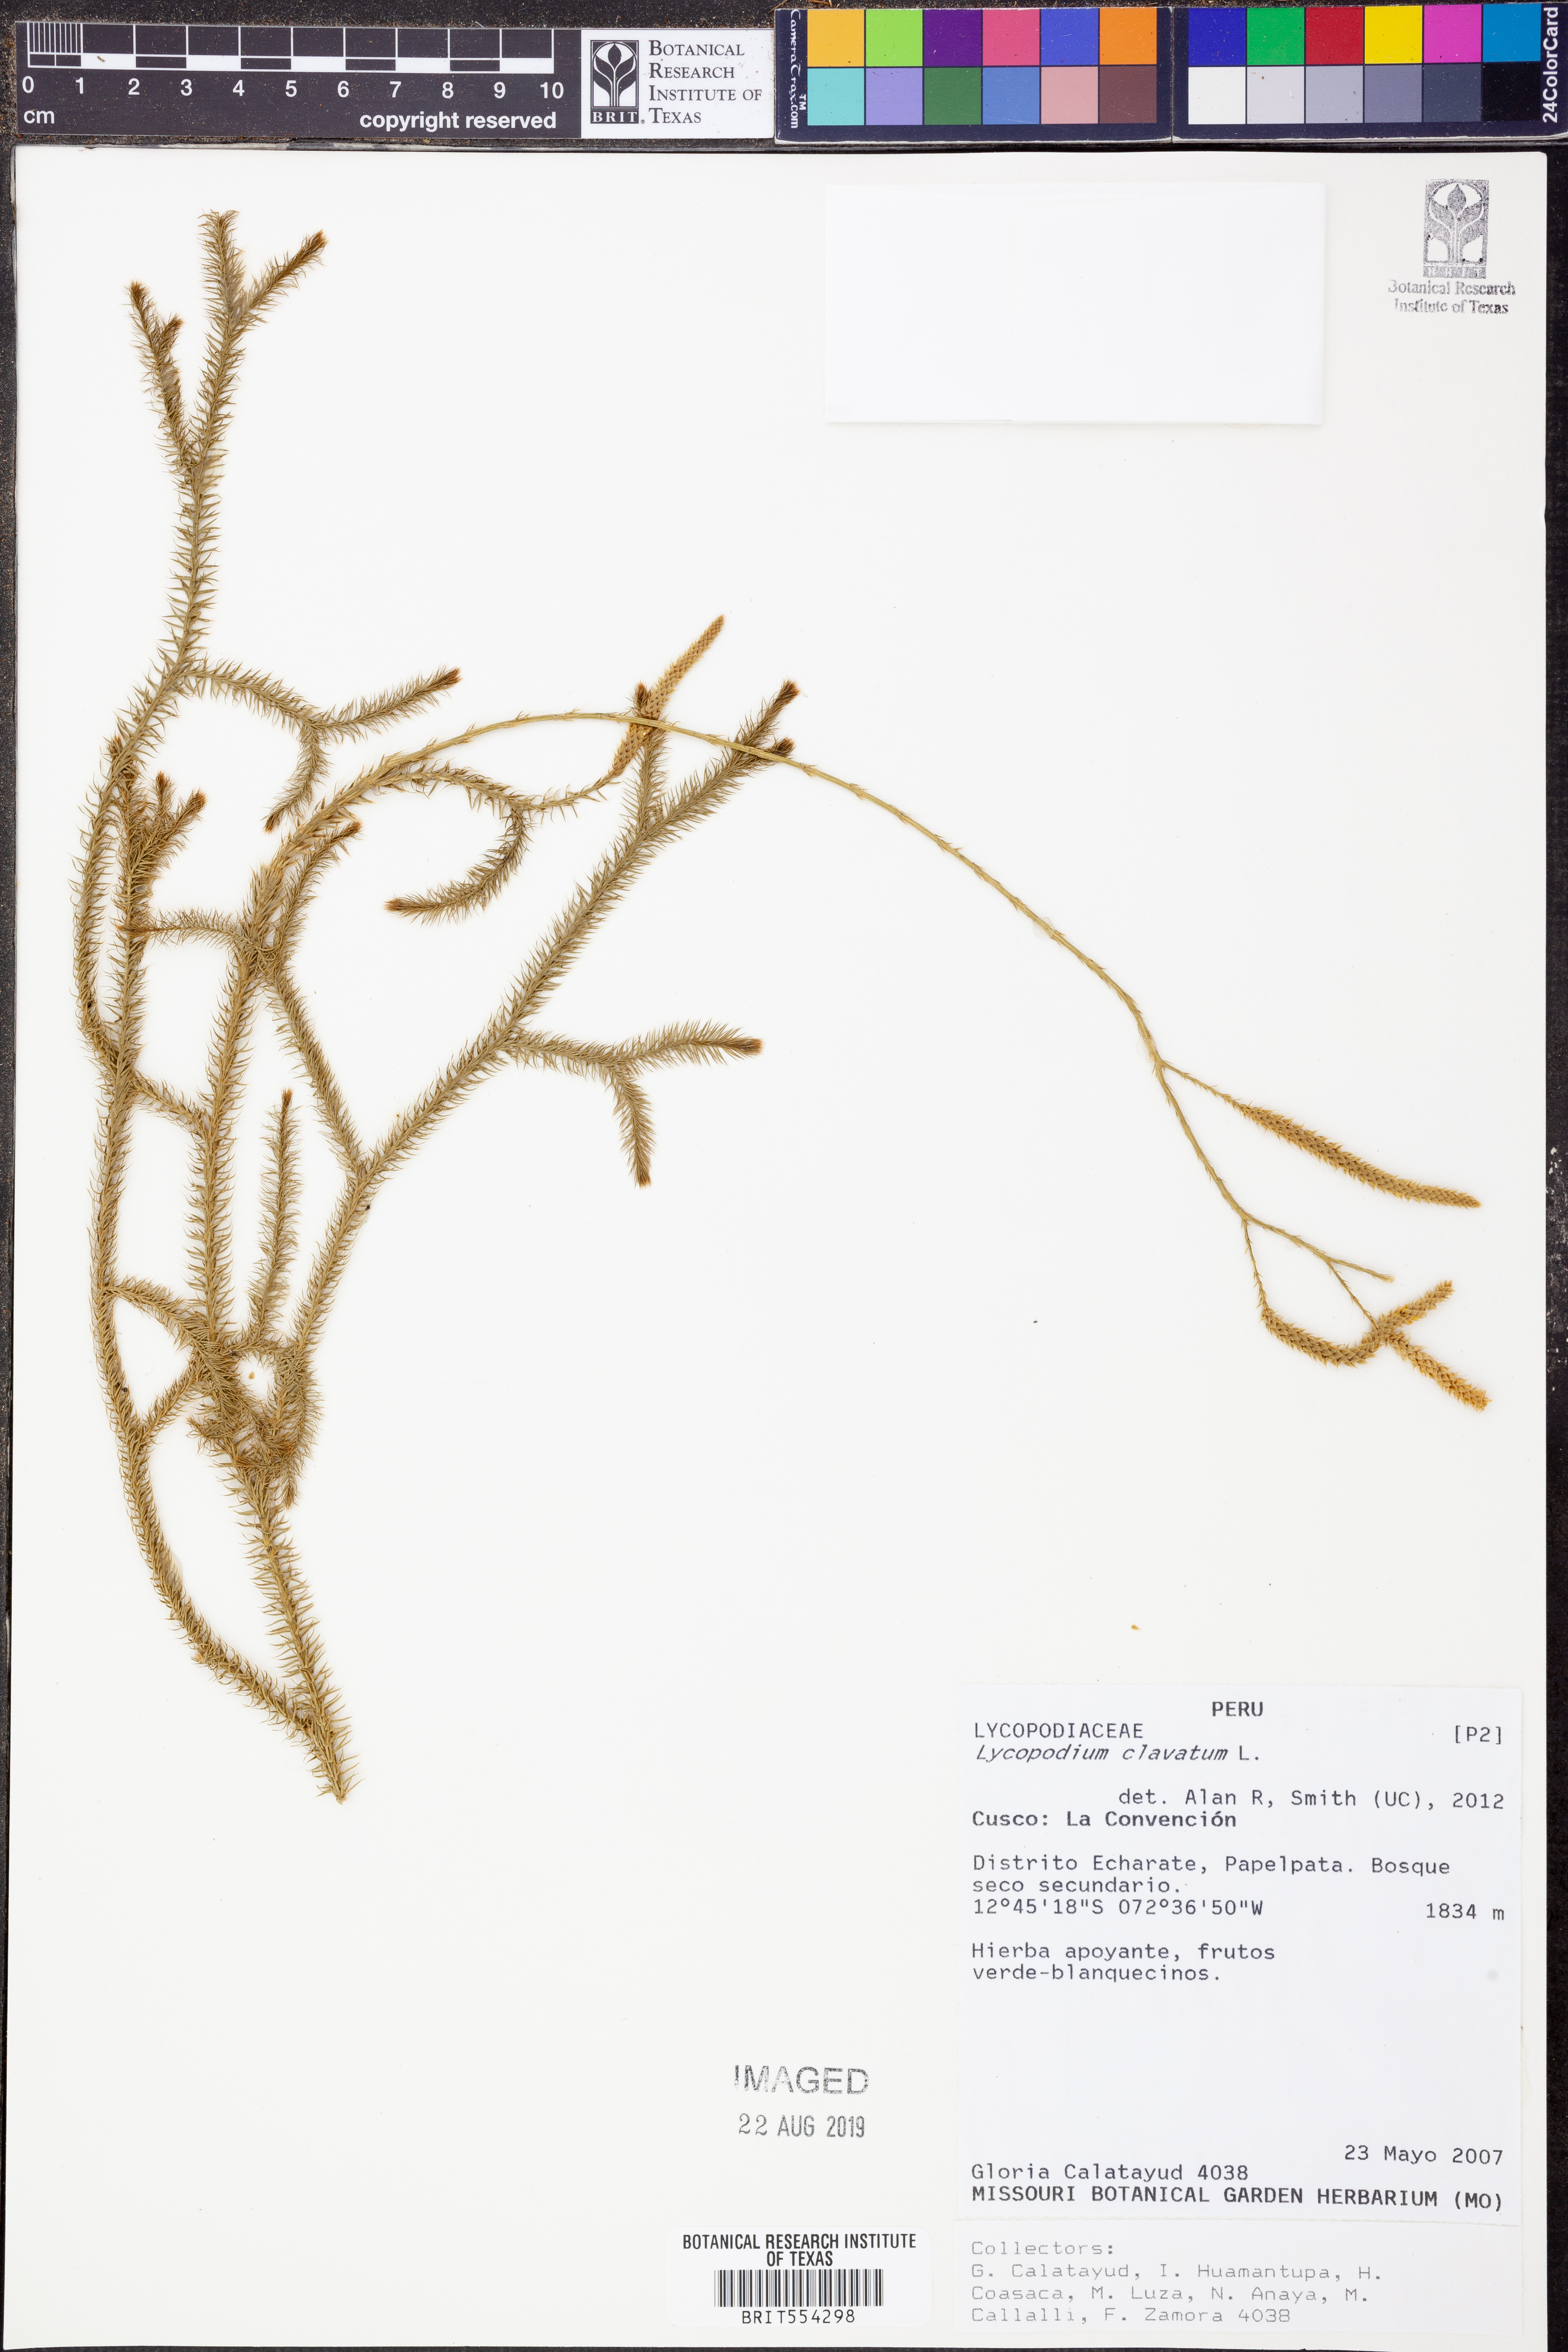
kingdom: Plantae
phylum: Tracheophyta
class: Lycopodiopsida
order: Lycopodiales
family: Lycopodiaceae
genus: Lycopodium
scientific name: Lycopodium clavatum
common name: Stag's-horn clubmoss
